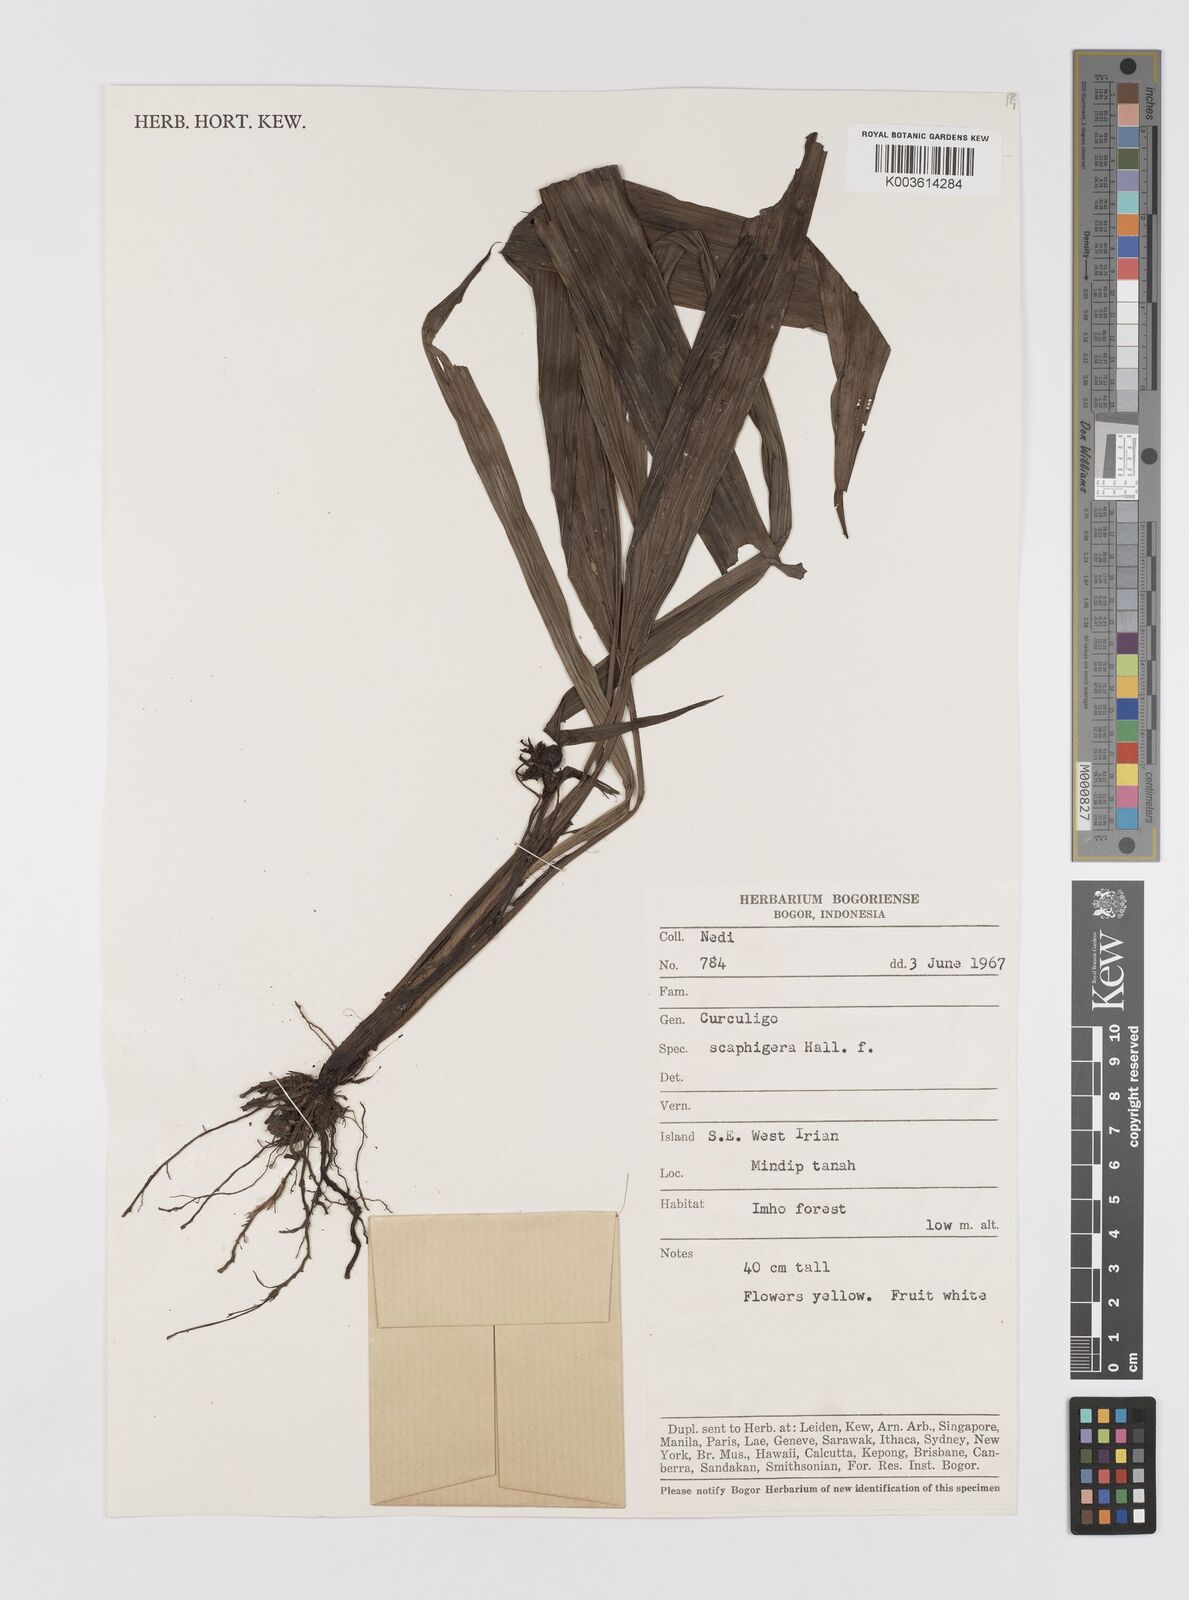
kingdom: Plantae
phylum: Tracheophyta
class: Liliopsida
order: Asparagales
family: Hypoxidaceae
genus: Curculigo
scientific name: Curculigo erecta
